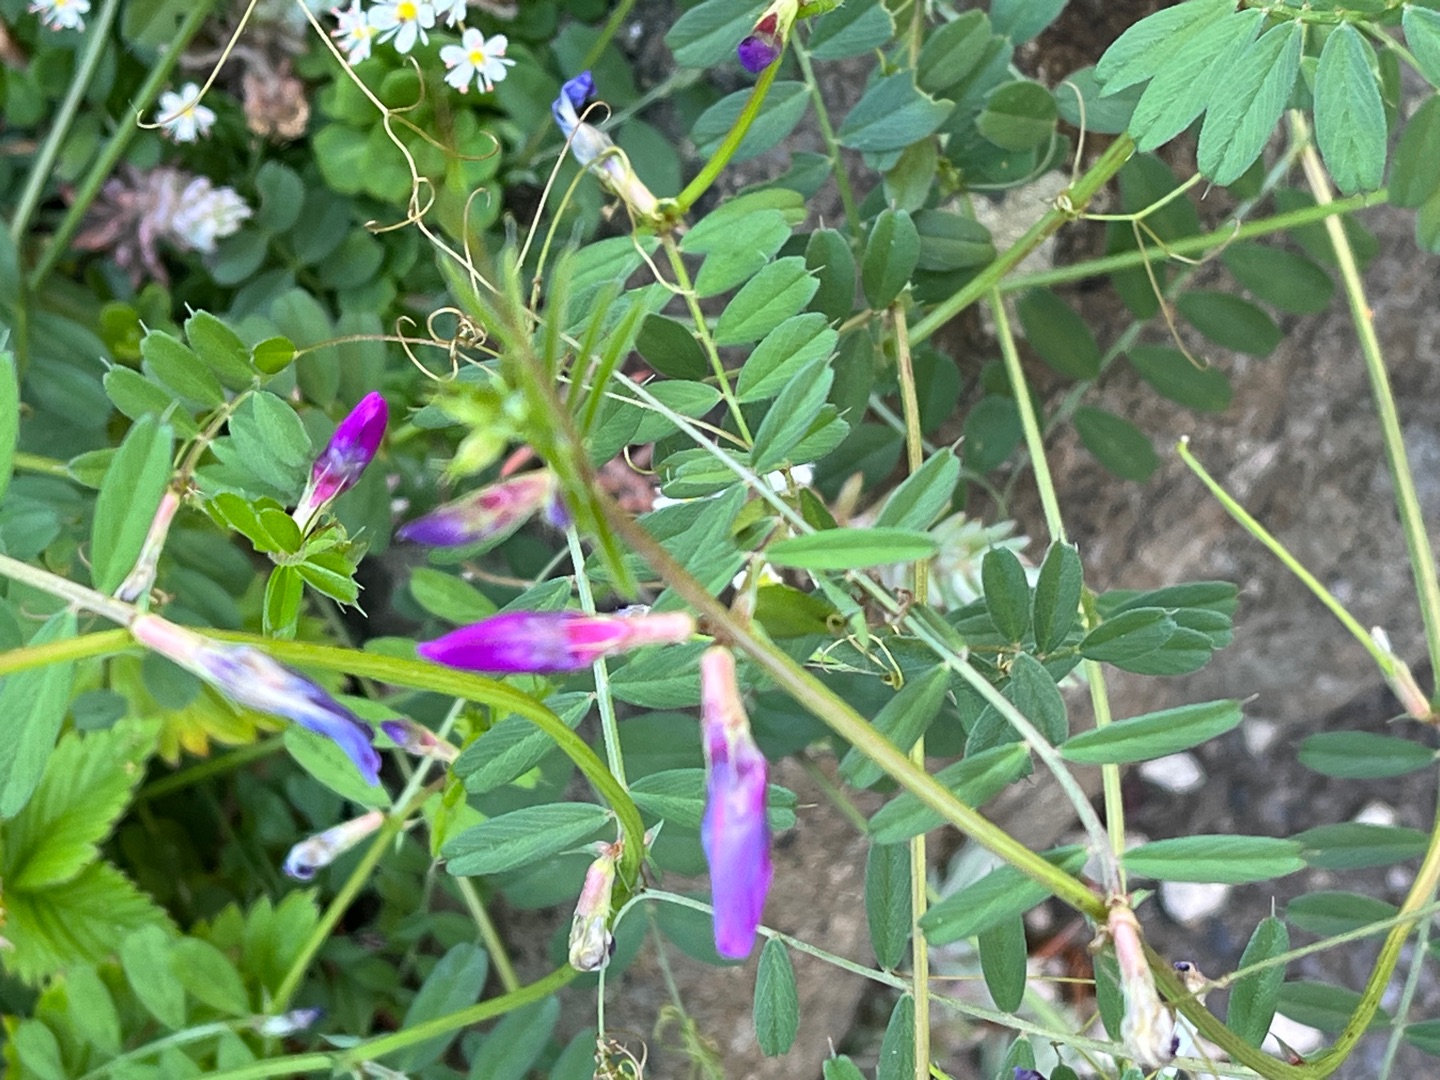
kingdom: Plantae
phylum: Tracheophyta
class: Magnoliopsida
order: Fabales
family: Fabaceae
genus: Vicia
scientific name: Vicia sativa
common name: Foder-vikke
